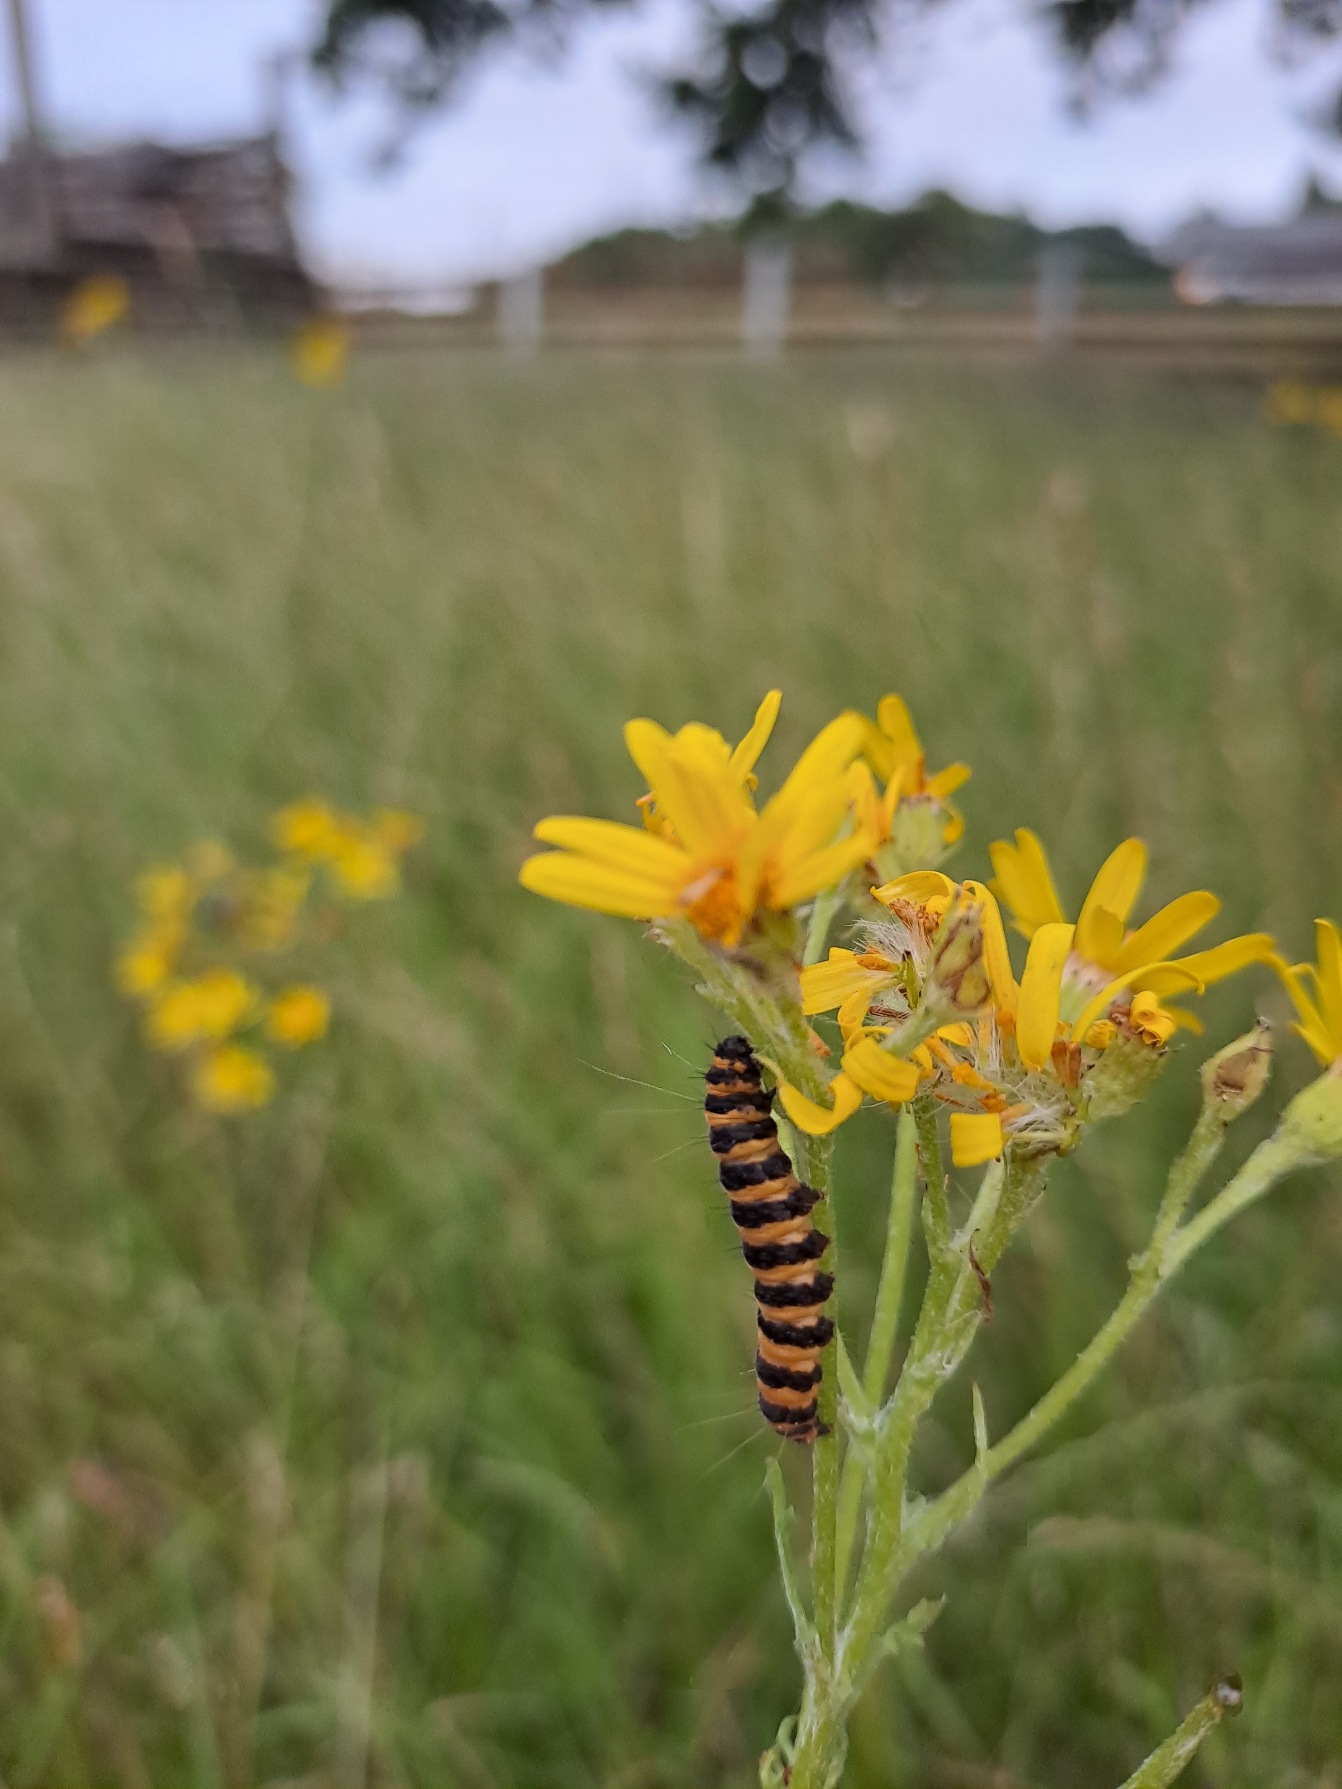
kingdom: Animalia
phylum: Arthropoda
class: Insecta
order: Lepidoptera
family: Erebidae
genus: Tyria
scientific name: Tyria jacobaeae
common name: Blodplet
